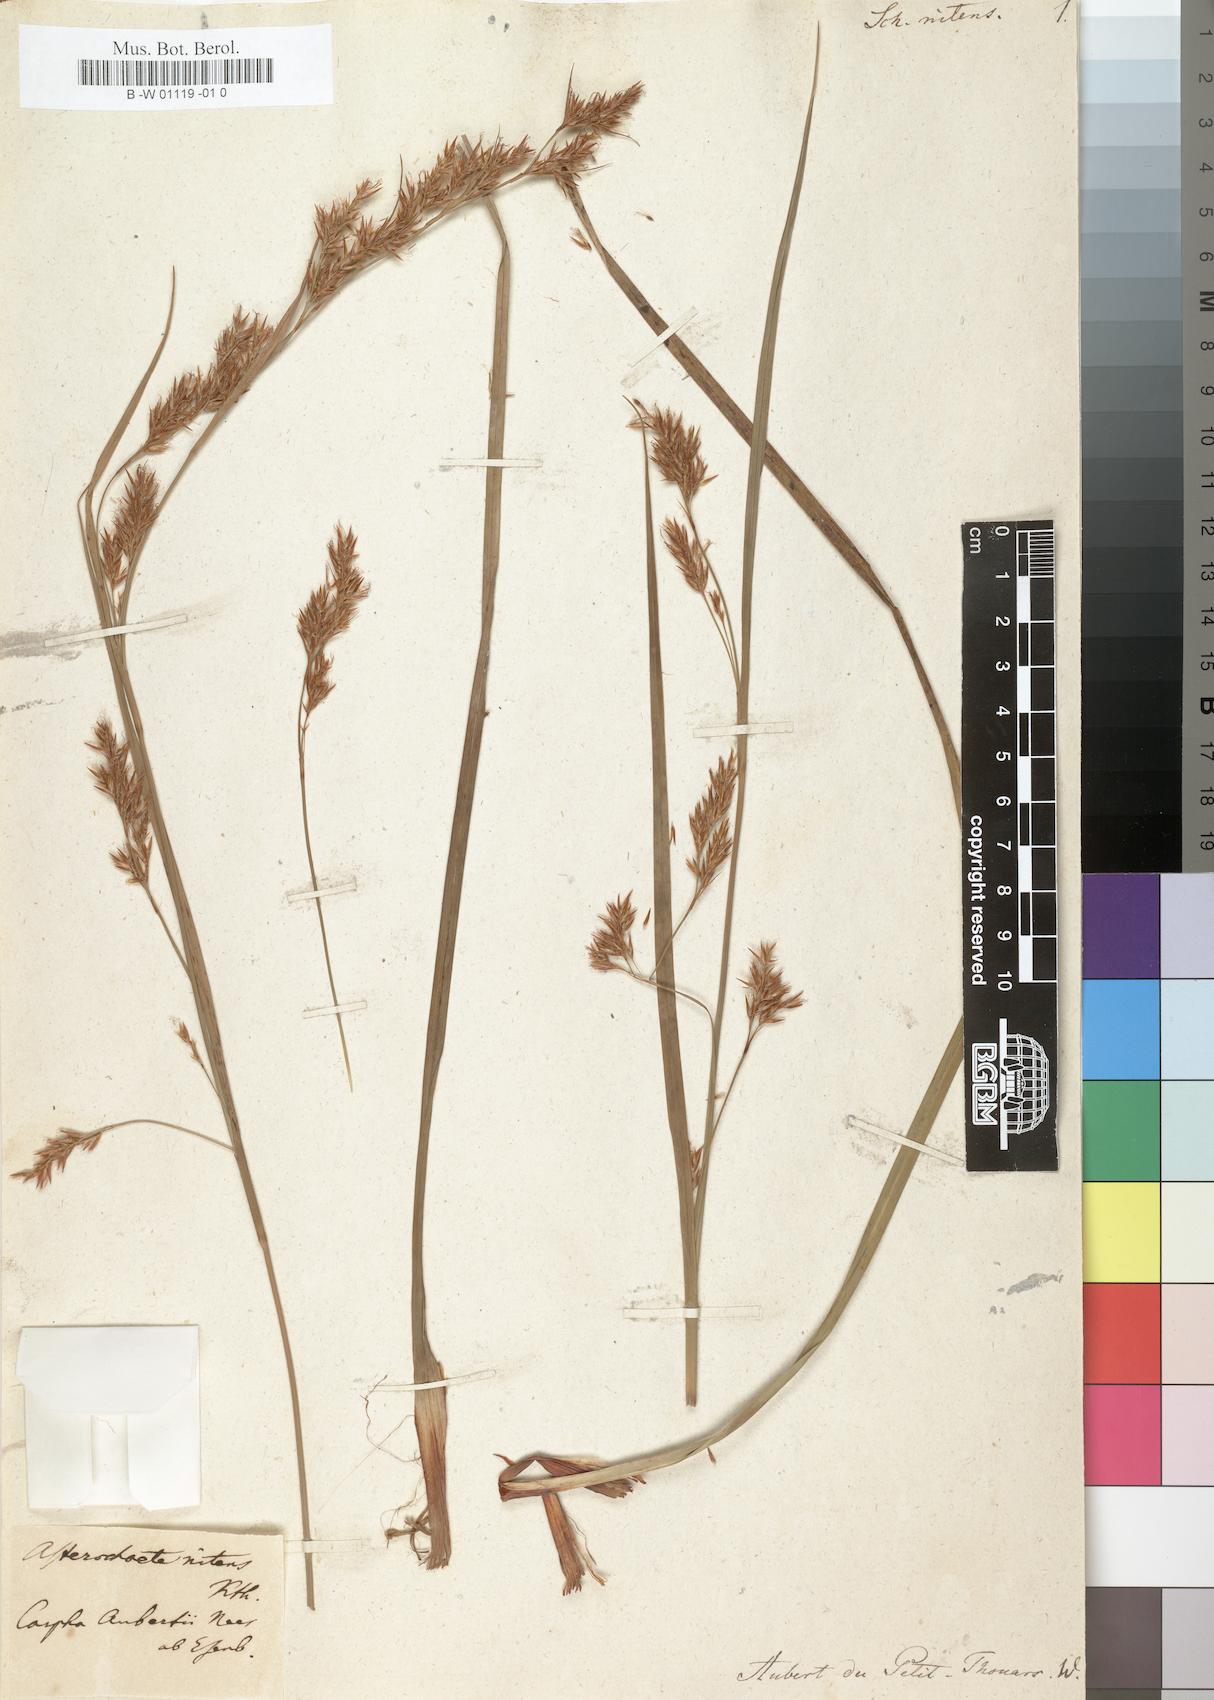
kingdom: Plantae
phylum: Tracheophyta
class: Liliopsida
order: Poales
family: Cyperaceae
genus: Carpha
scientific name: Carpha nitens
